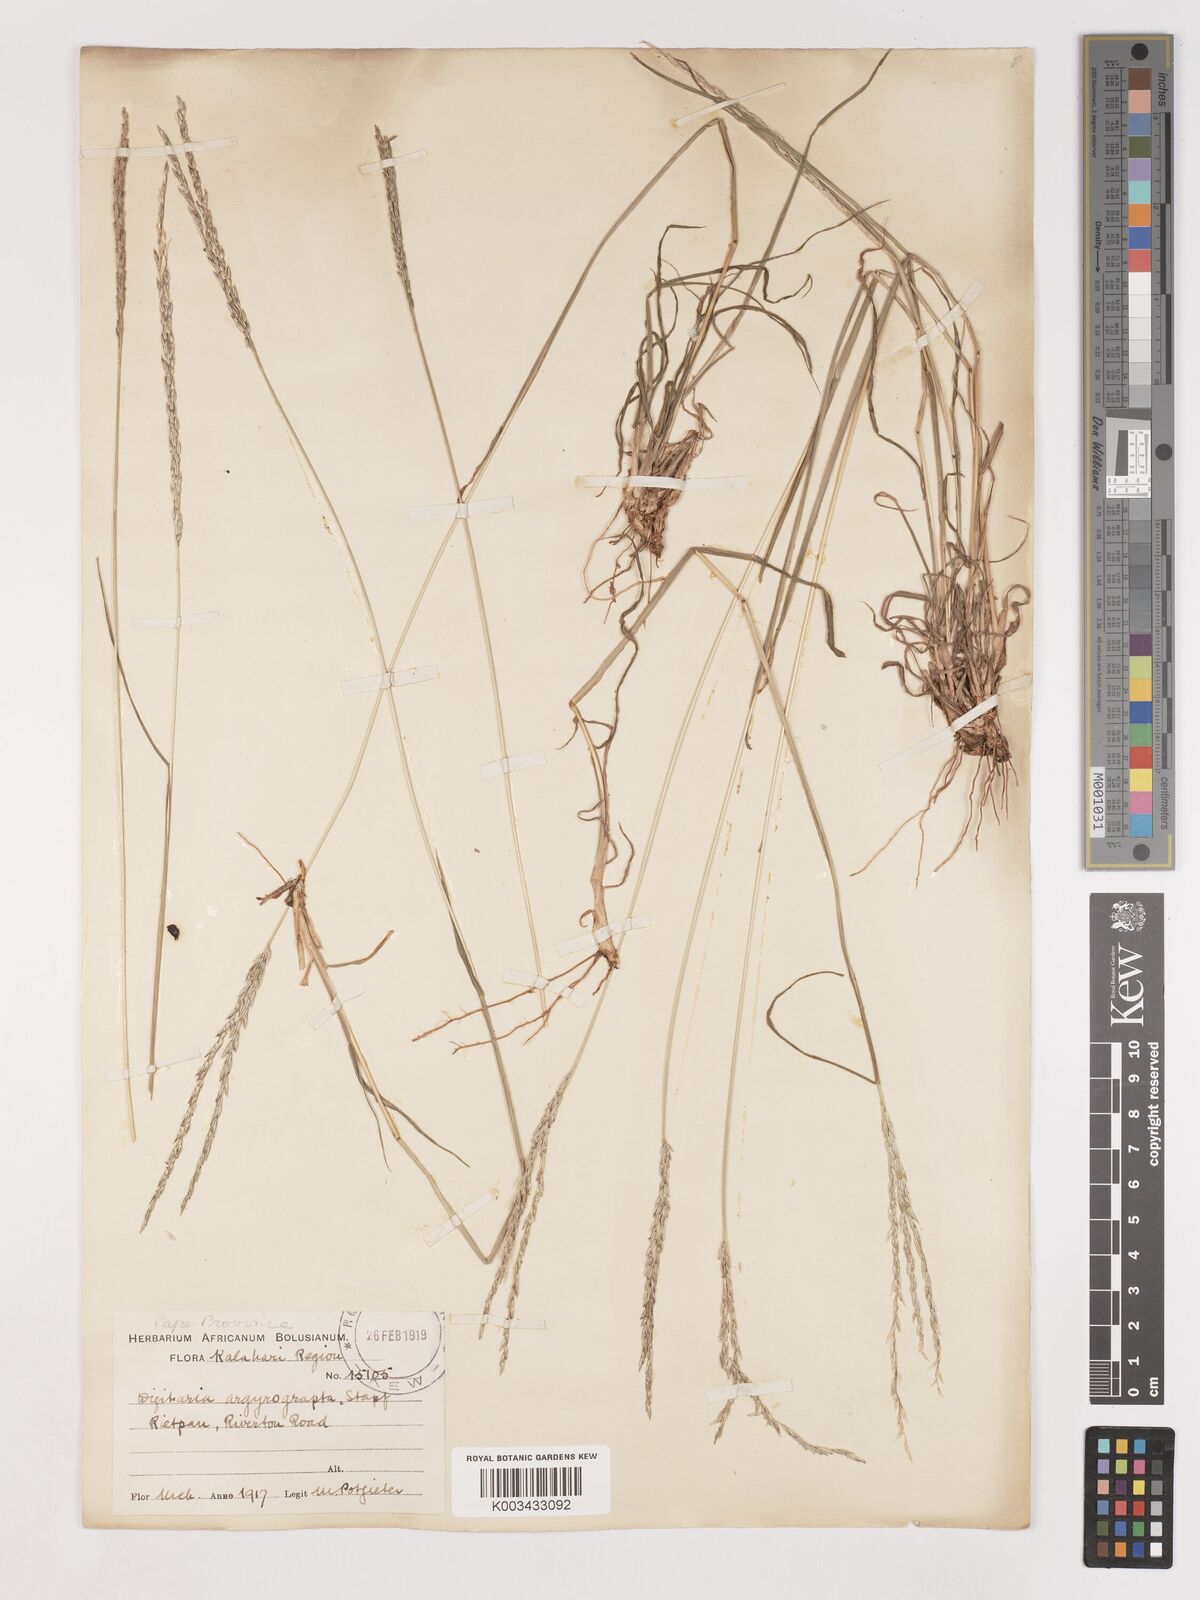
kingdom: Plantae
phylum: Tracheophyta
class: Liliopsida
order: Poales
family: Poaceae
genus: Digitaria
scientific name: Digitaria argyrograpta
